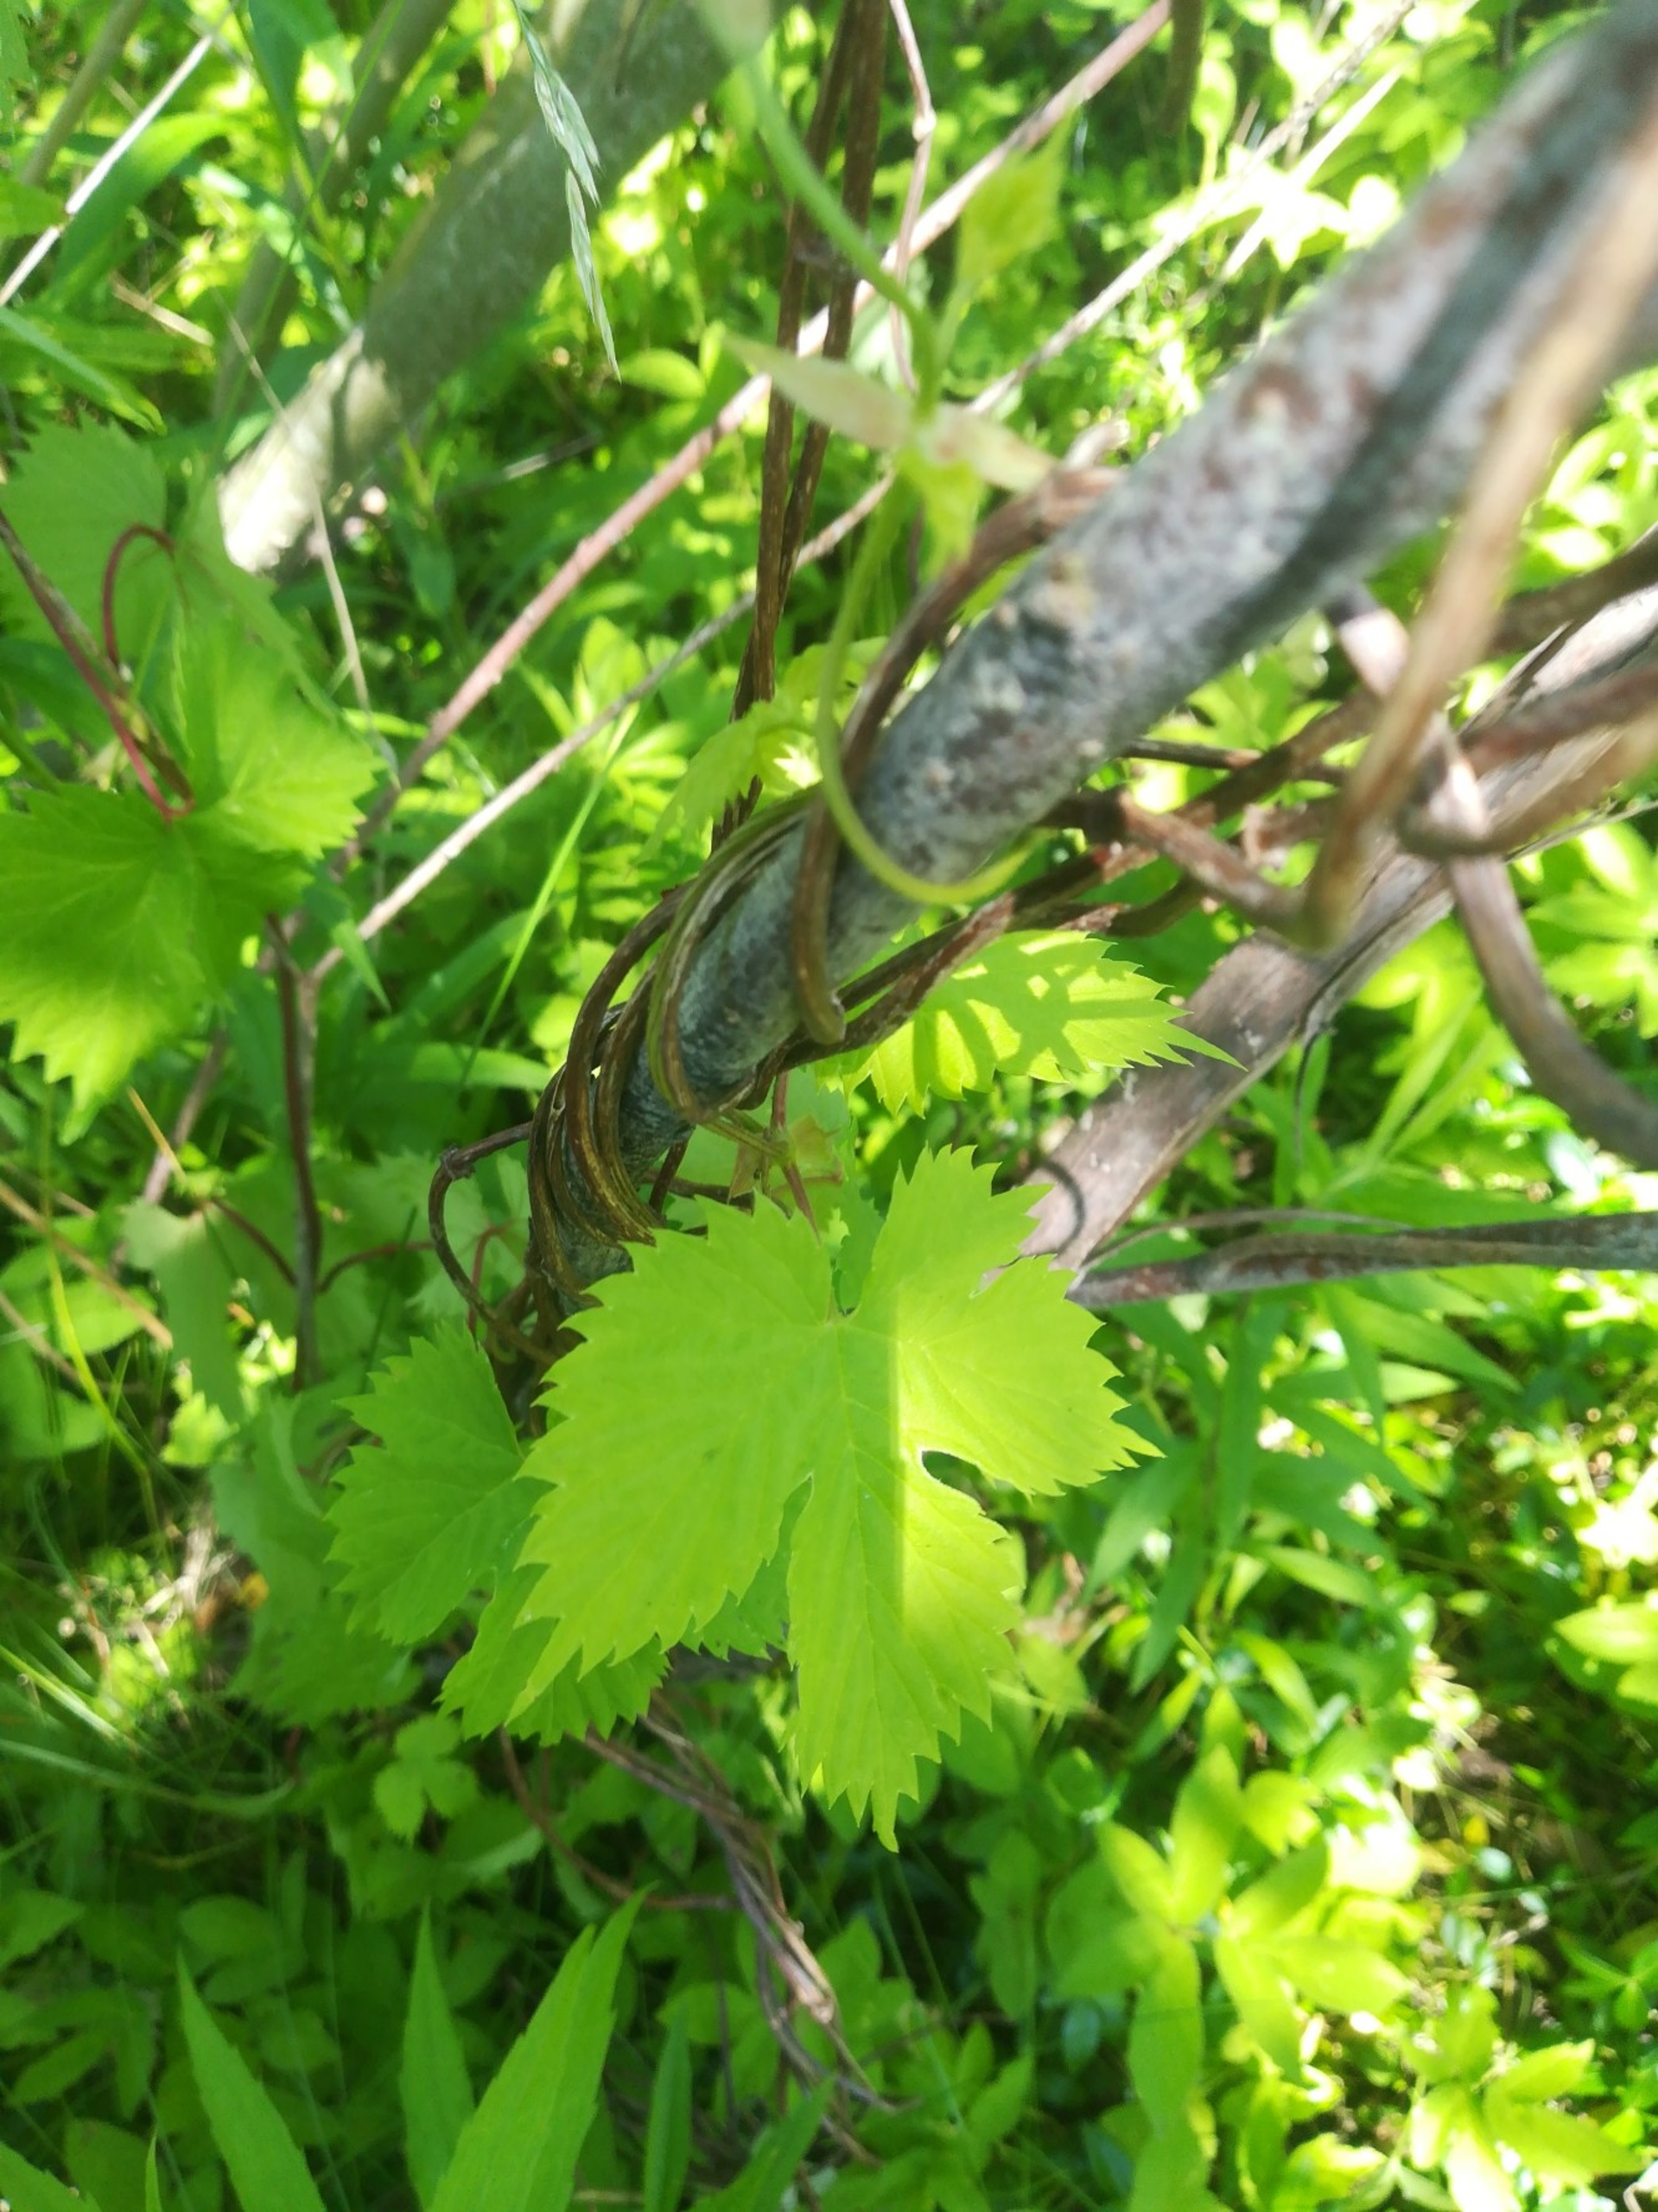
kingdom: Plantae
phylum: Tracheophyta
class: Magnoliopsida
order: Rosales
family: Cannabaceae
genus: Humulus
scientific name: Humulus lupulus
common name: Humle
